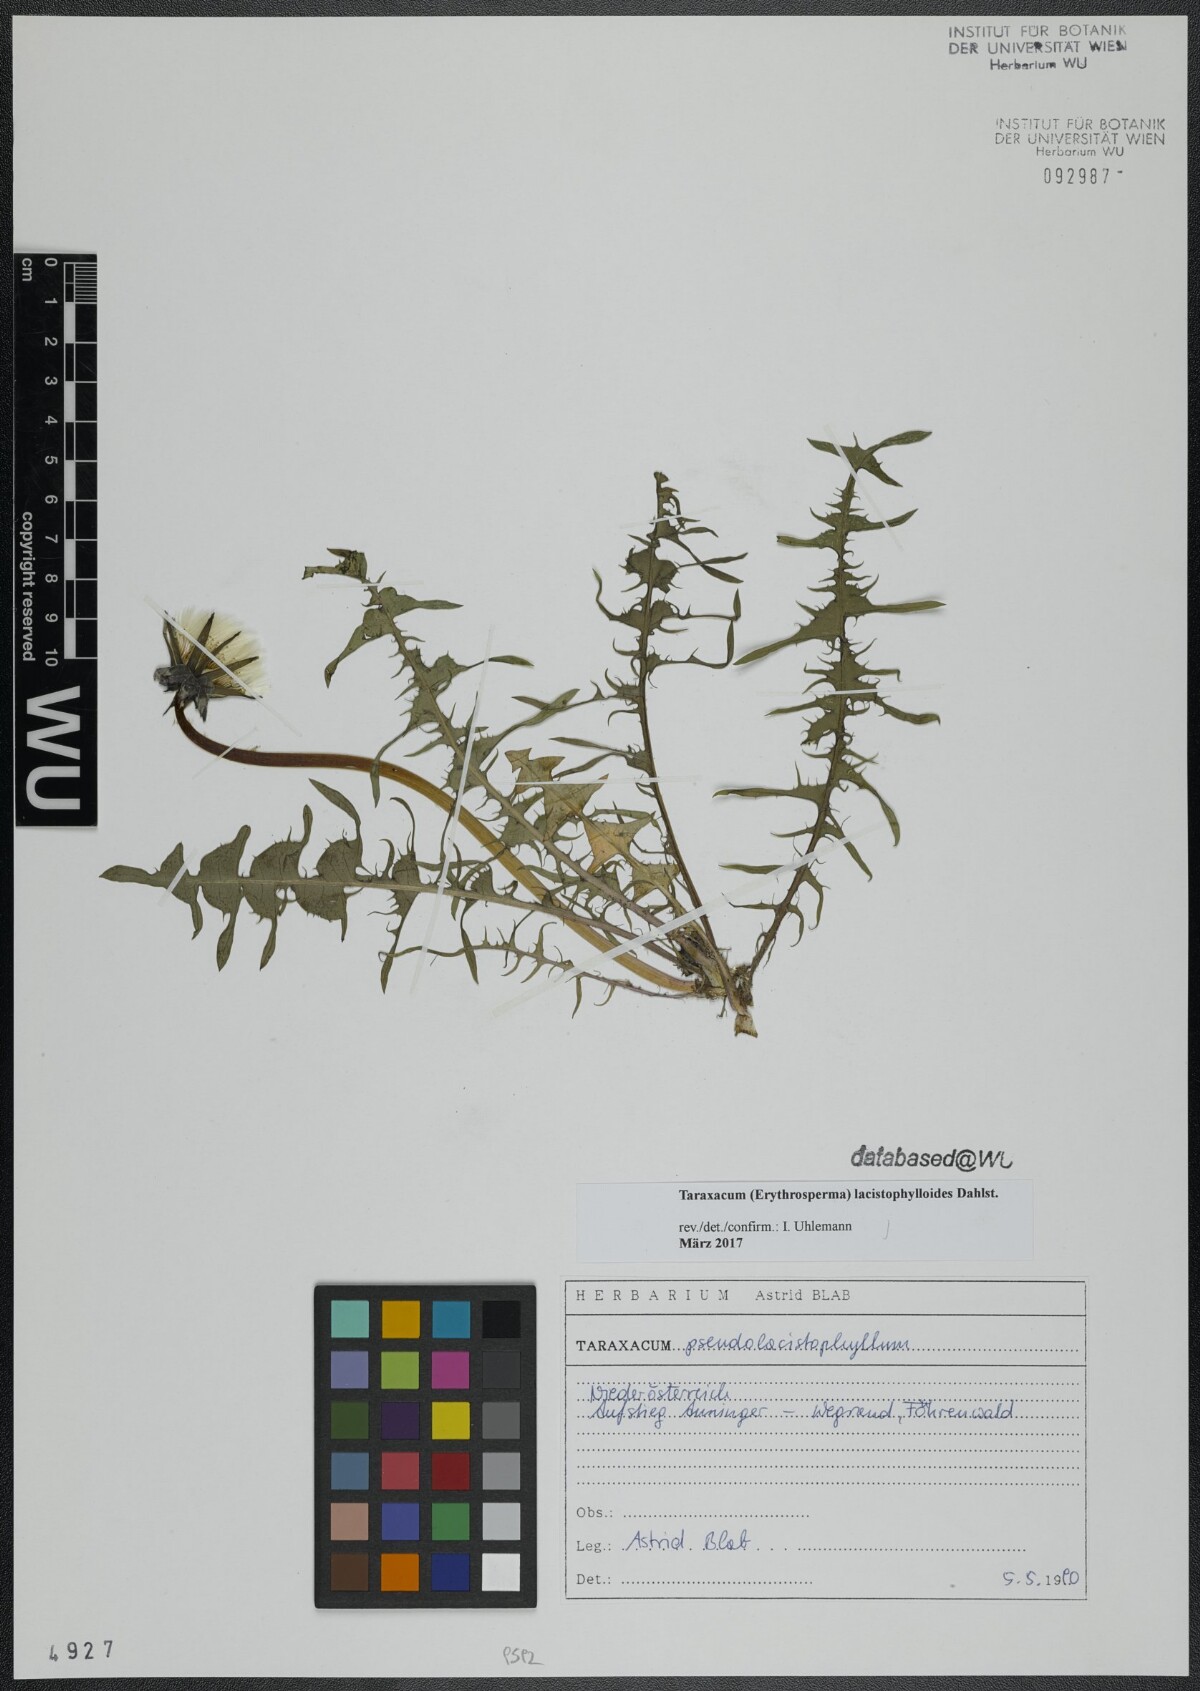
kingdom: Plantae
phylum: Tracheophyta
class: Magnoliopsida
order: Asterales
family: Asteraceae
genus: Taraxacum
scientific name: Taraxacum lacistophylloides
